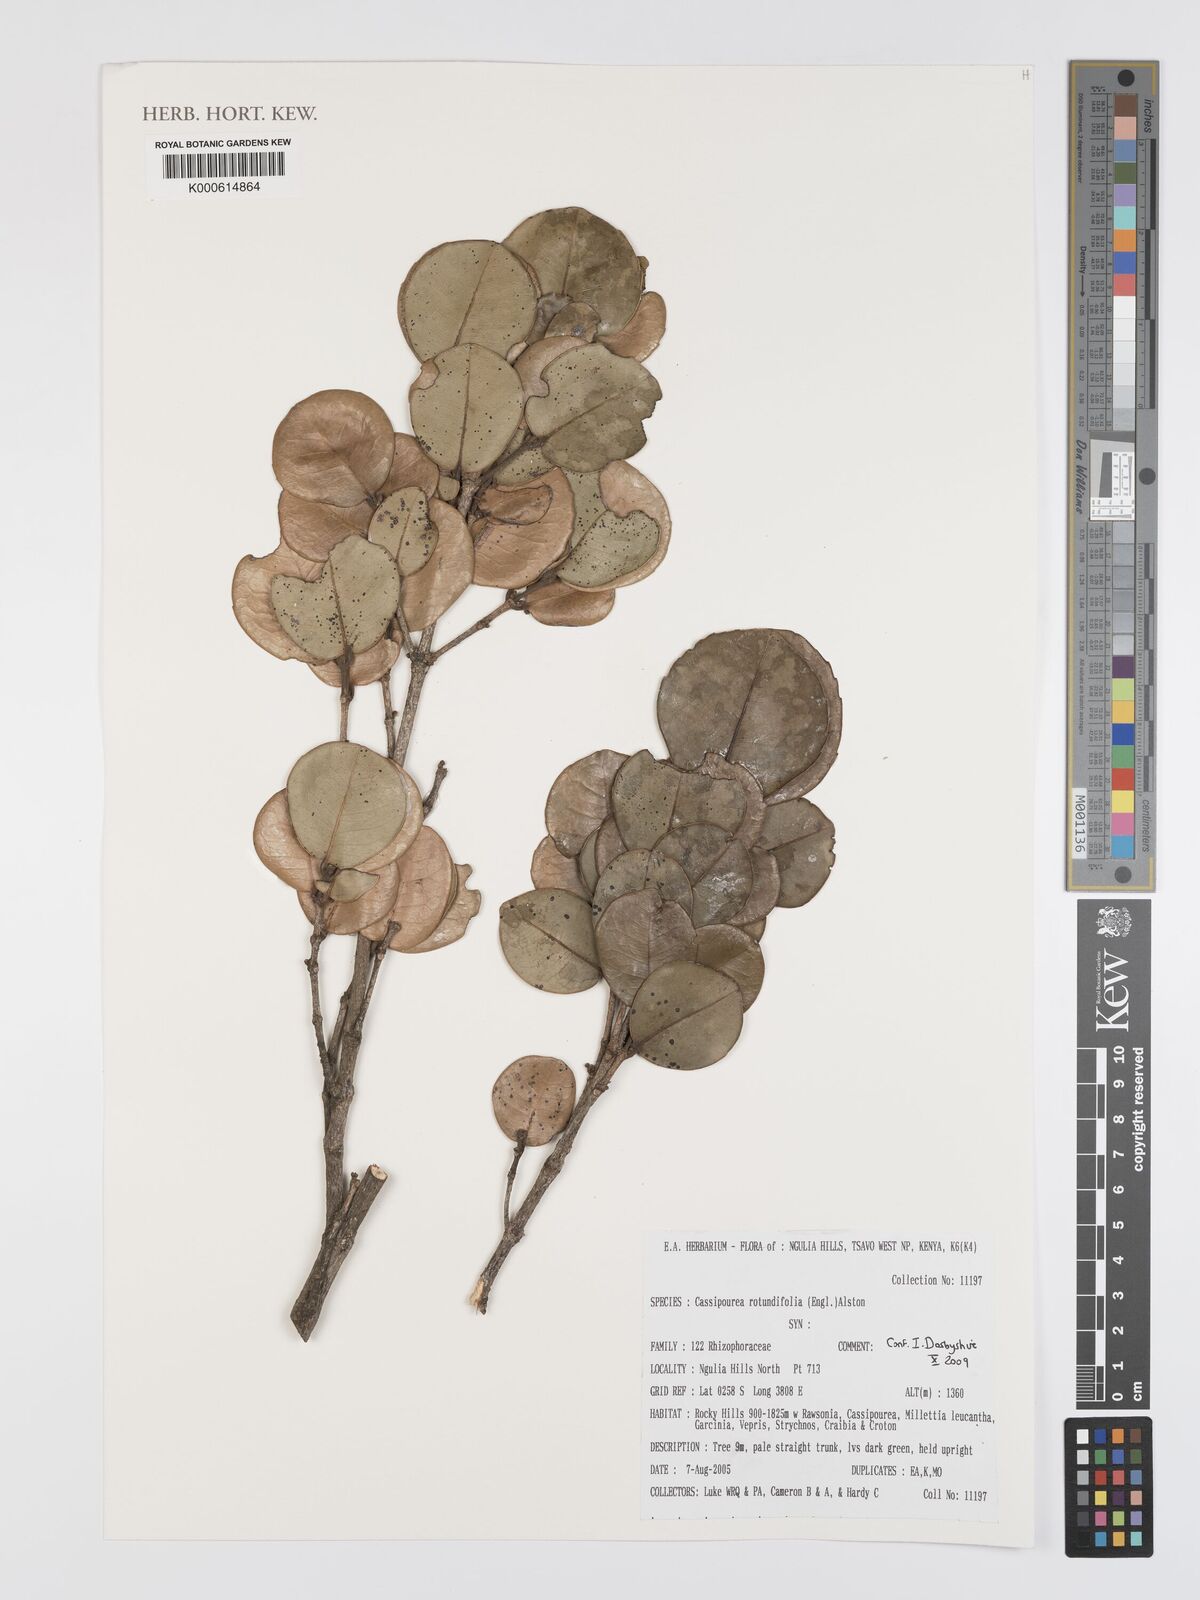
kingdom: Plantae
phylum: Tracheophyta
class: Magnoliopsida
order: Malpighiales
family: Rhizophoraceae
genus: Cassipourea
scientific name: Cassipourea rotundifolia
